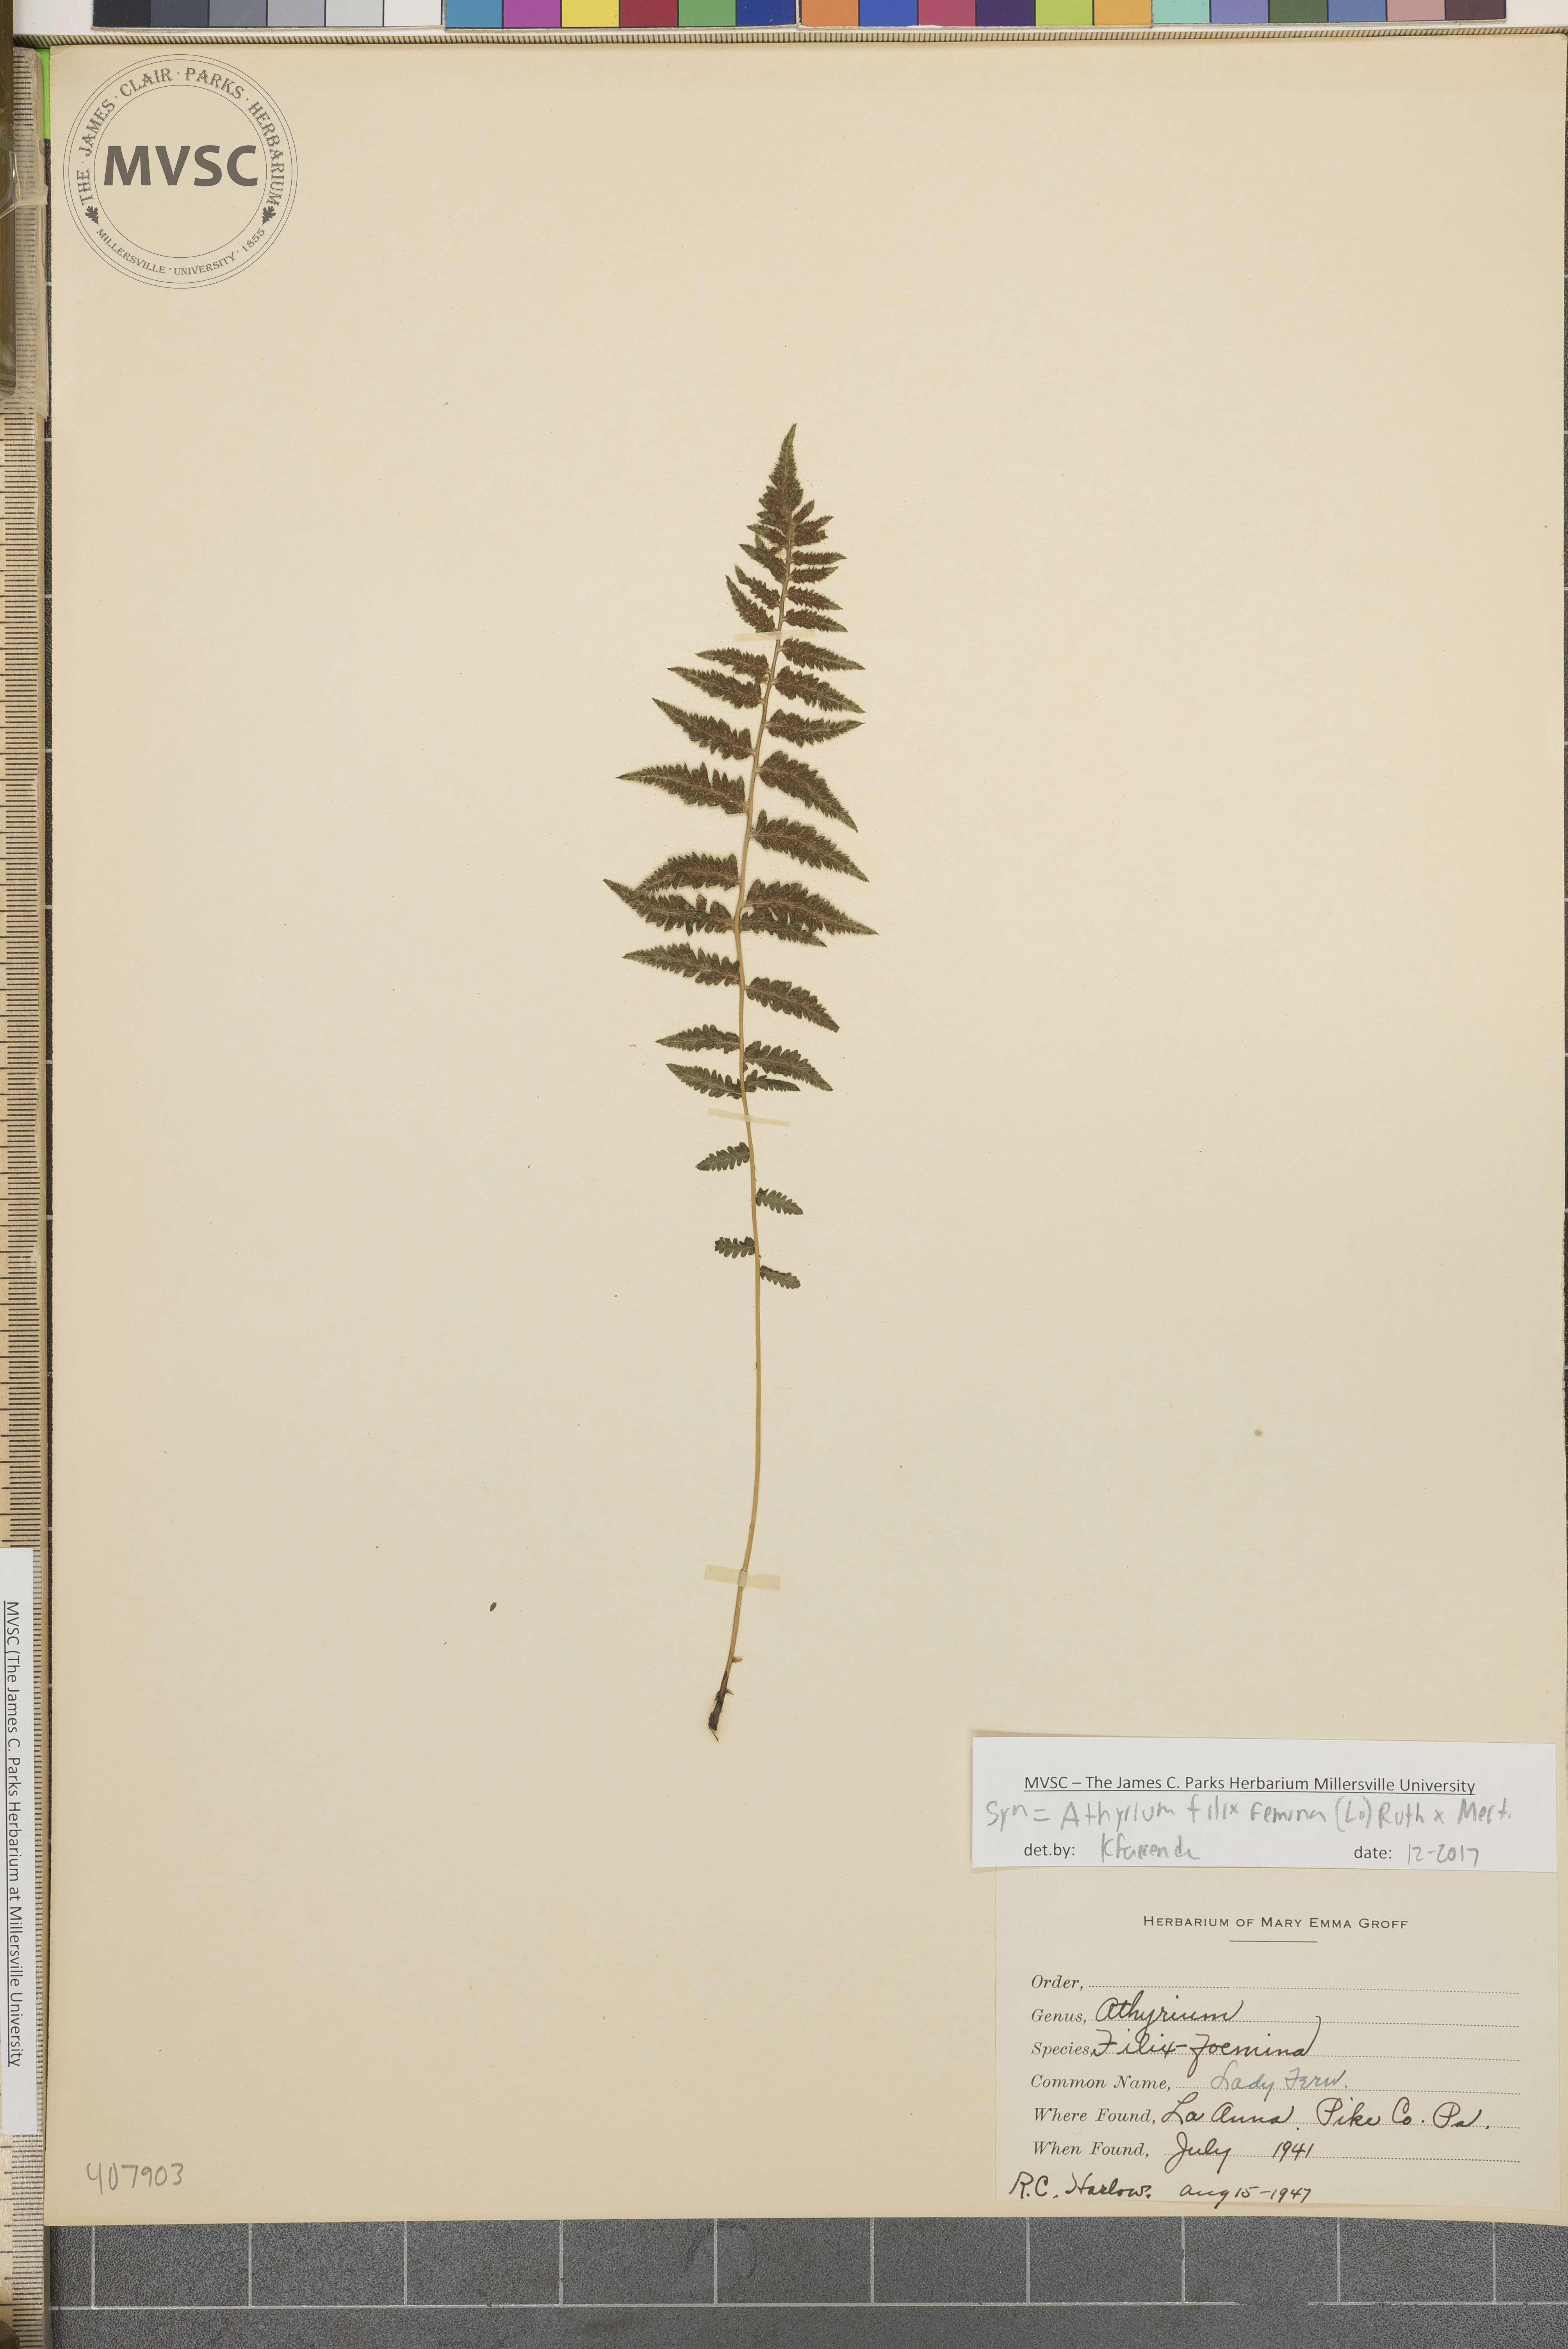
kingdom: Plantae
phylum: Tracheophyta
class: Polypodiopsida
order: Polypodiales
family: Athyriaceae
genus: Athyrium
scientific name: Athyrium filix-femina
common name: Lady fern
